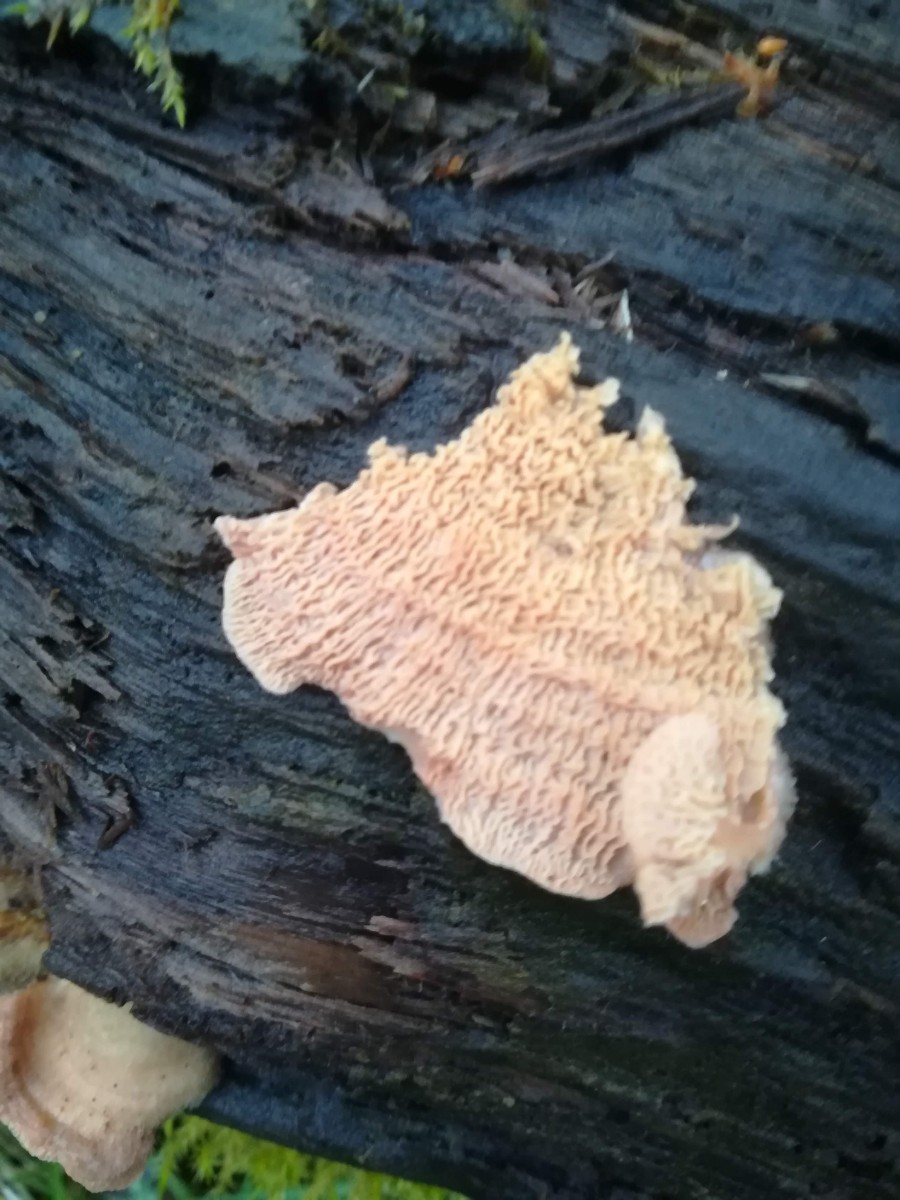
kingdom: Fungi
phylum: Basidiomycota
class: Agaricomycetes
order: Polyporales
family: Meruliaceae
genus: Phlebia
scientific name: Phlebia tremellosa
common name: bævrende åresvamp
